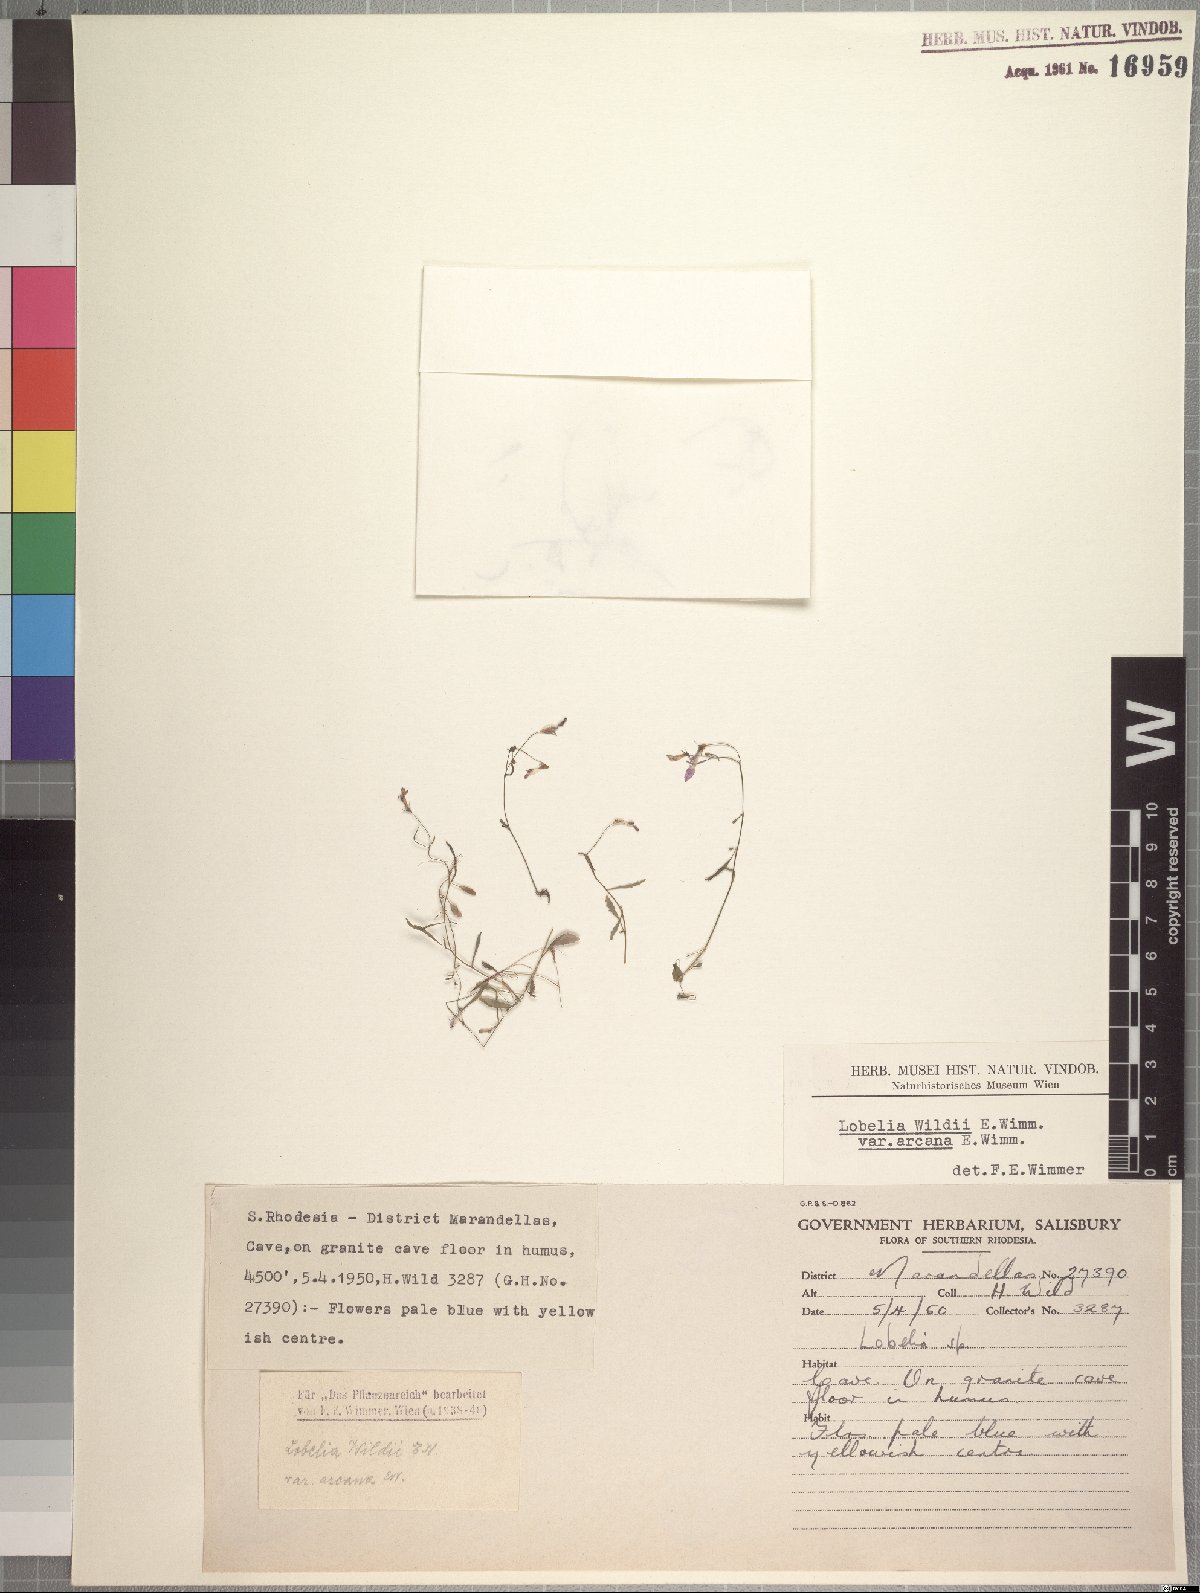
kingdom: Plantae
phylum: Tracheophyta
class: Magnoliopsida
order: Asterales
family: Campanulaceae
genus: Lobelia
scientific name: Lobelia erinus
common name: Edging lobelia
